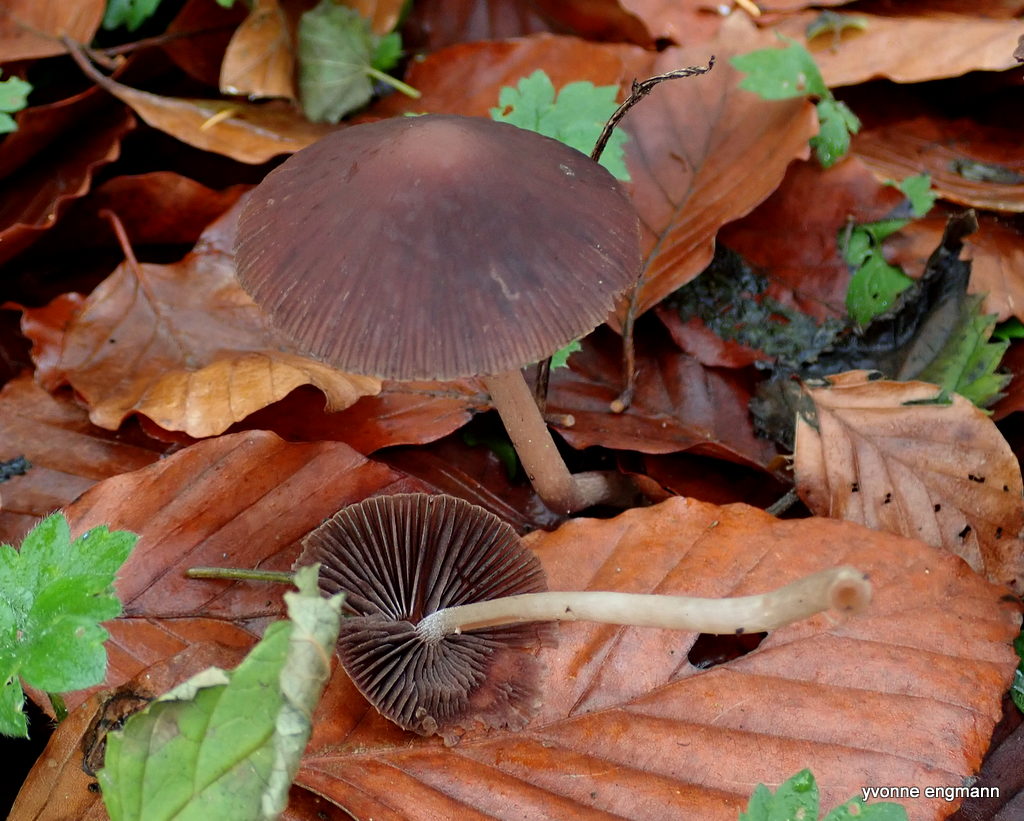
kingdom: Fungi
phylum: Basidiomycota
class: Agaricomycetes
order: Agaricales
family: Psathyrellaceae
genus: Psathyrella
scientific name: Psathyrella bipellis
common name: vinrød mørkhat
